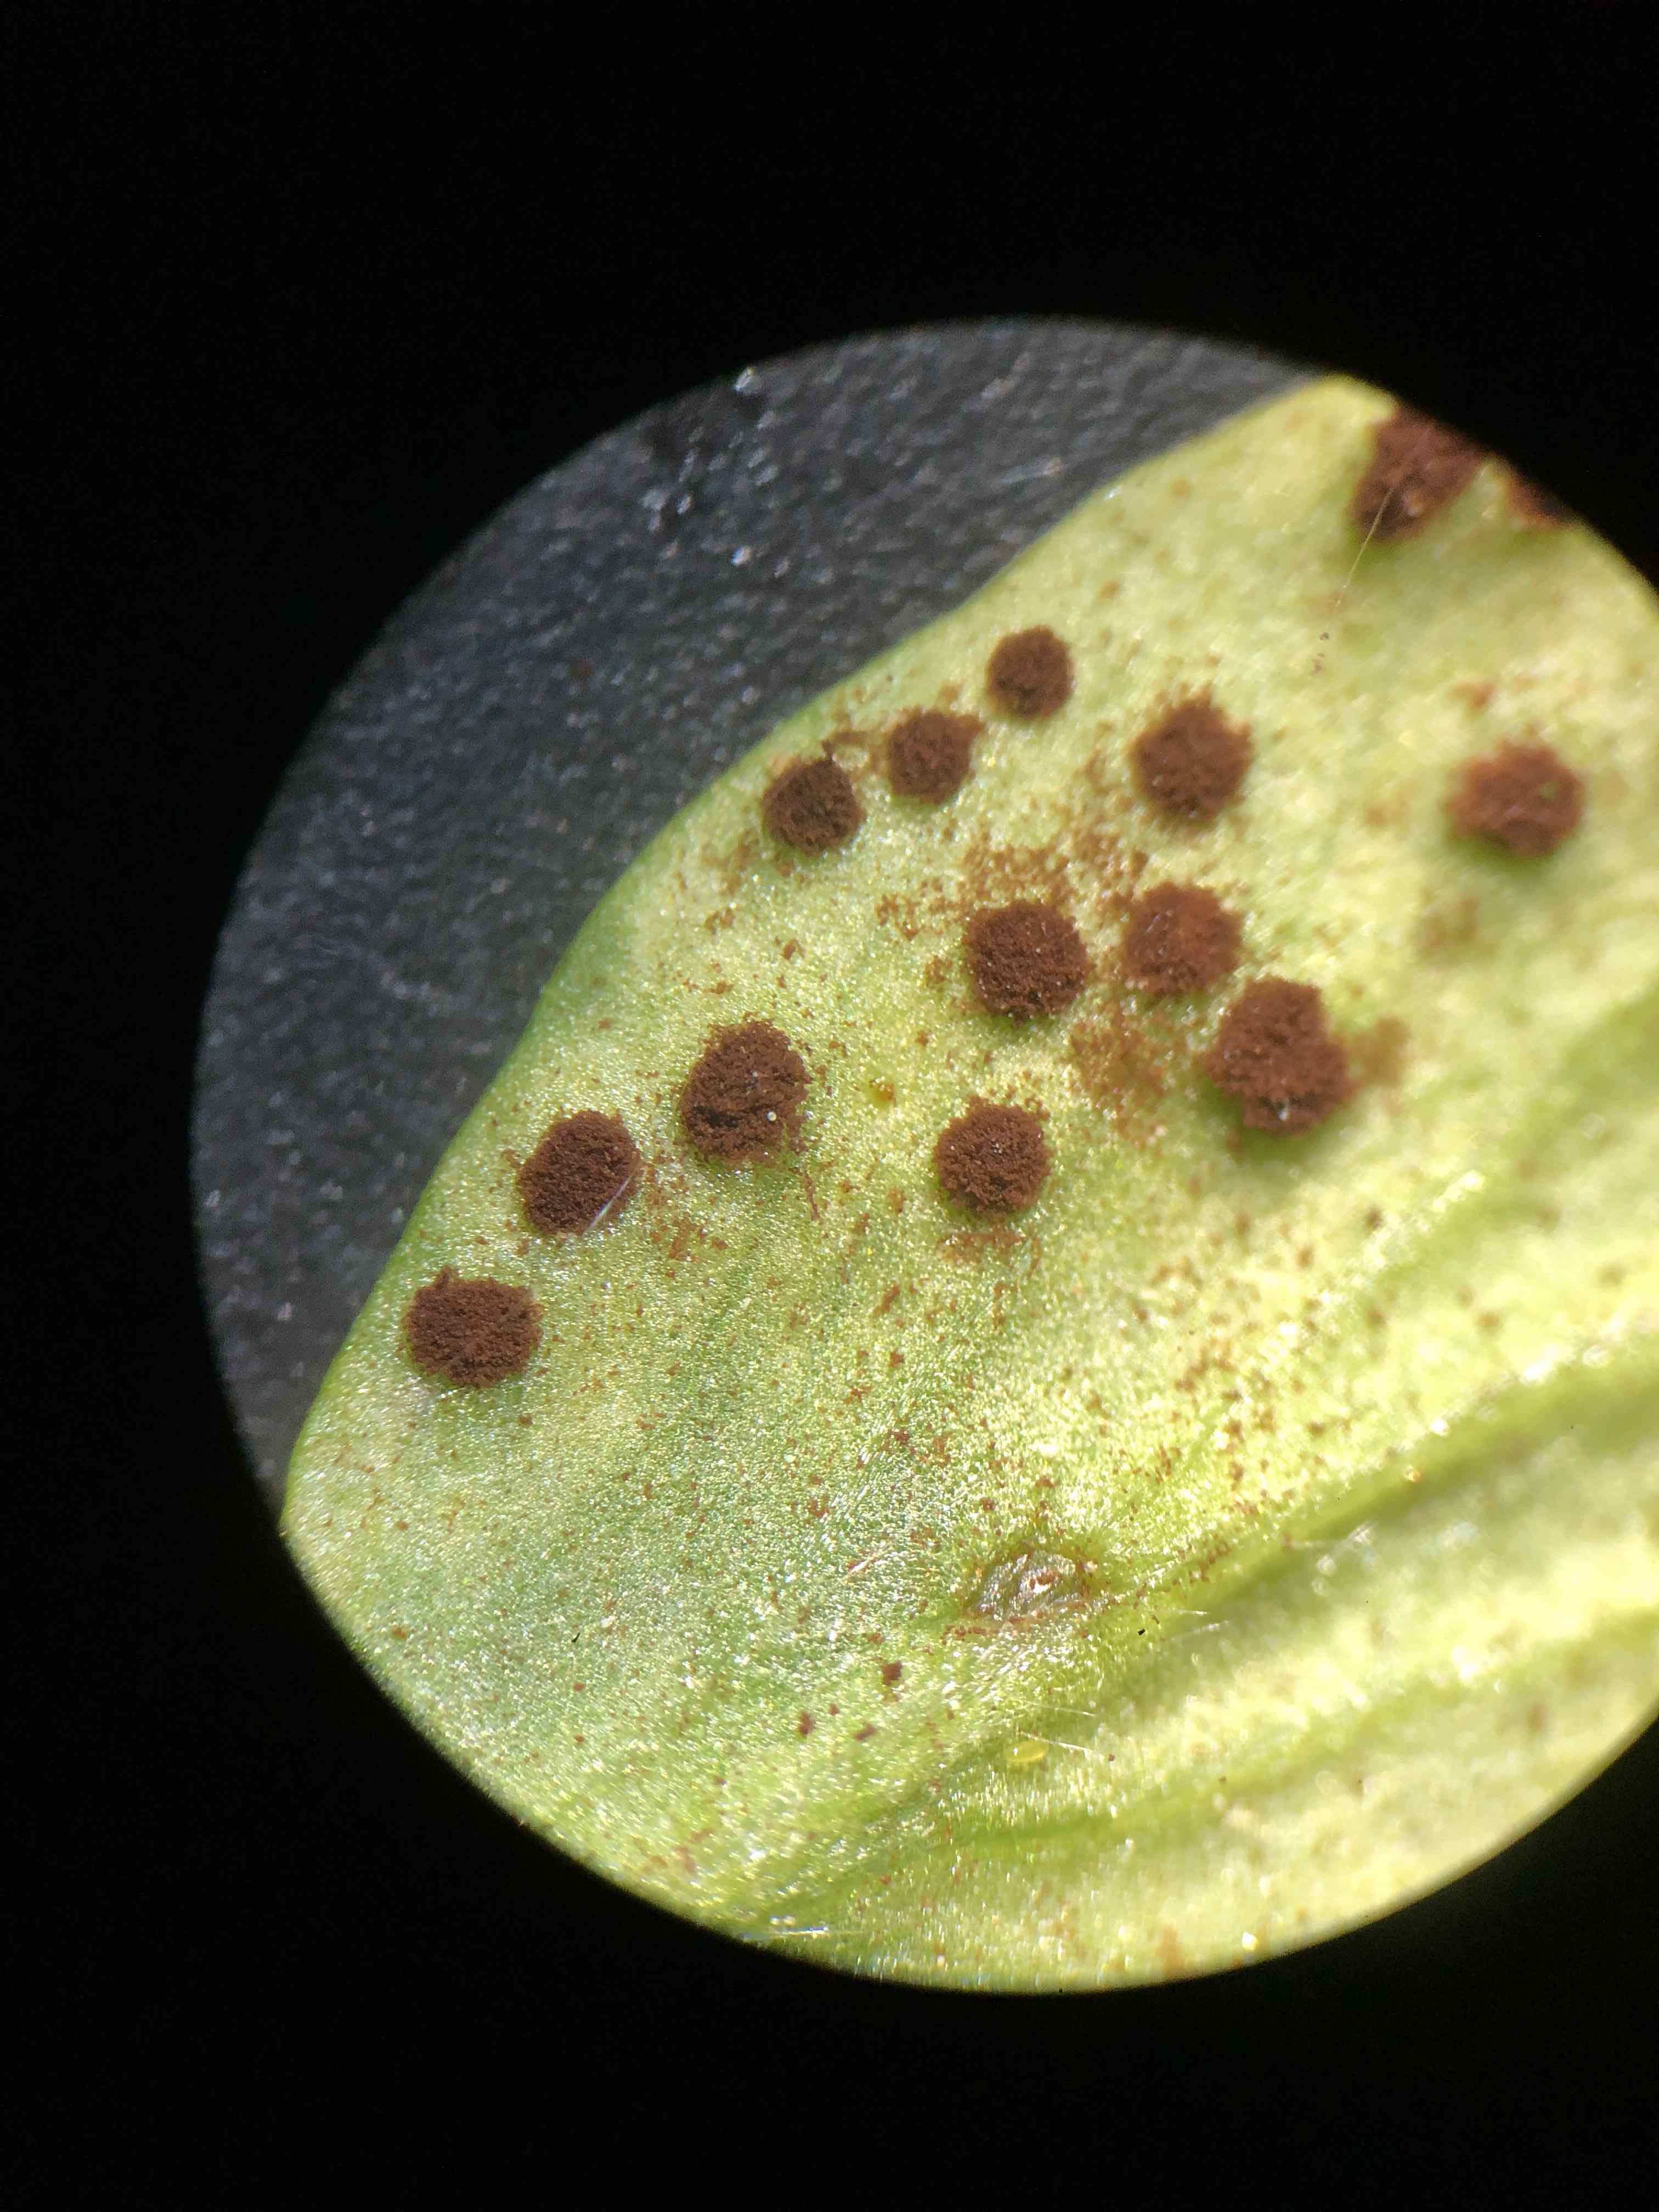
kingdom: Fungi
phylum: Basidiomycota
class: Pucciniomycetes
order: Pucciniales
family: Tranzscheliaceae
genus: Tranzschelia
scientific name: Tranzschelia anemones
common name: anemone-knæksporerust
